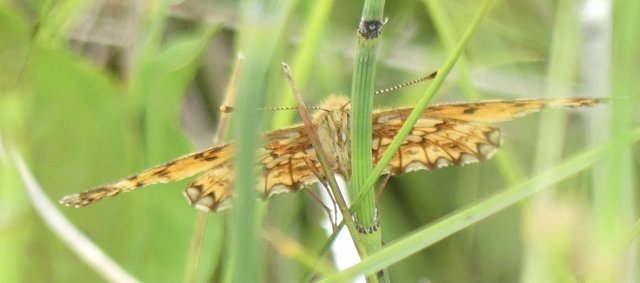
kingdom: Animalia
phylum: Arthropoda
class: Insecta
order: Lepidoptera
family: Nymphalidae
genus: Clossiana
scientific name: Clossiana toddi
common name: Meadow Fritillary
